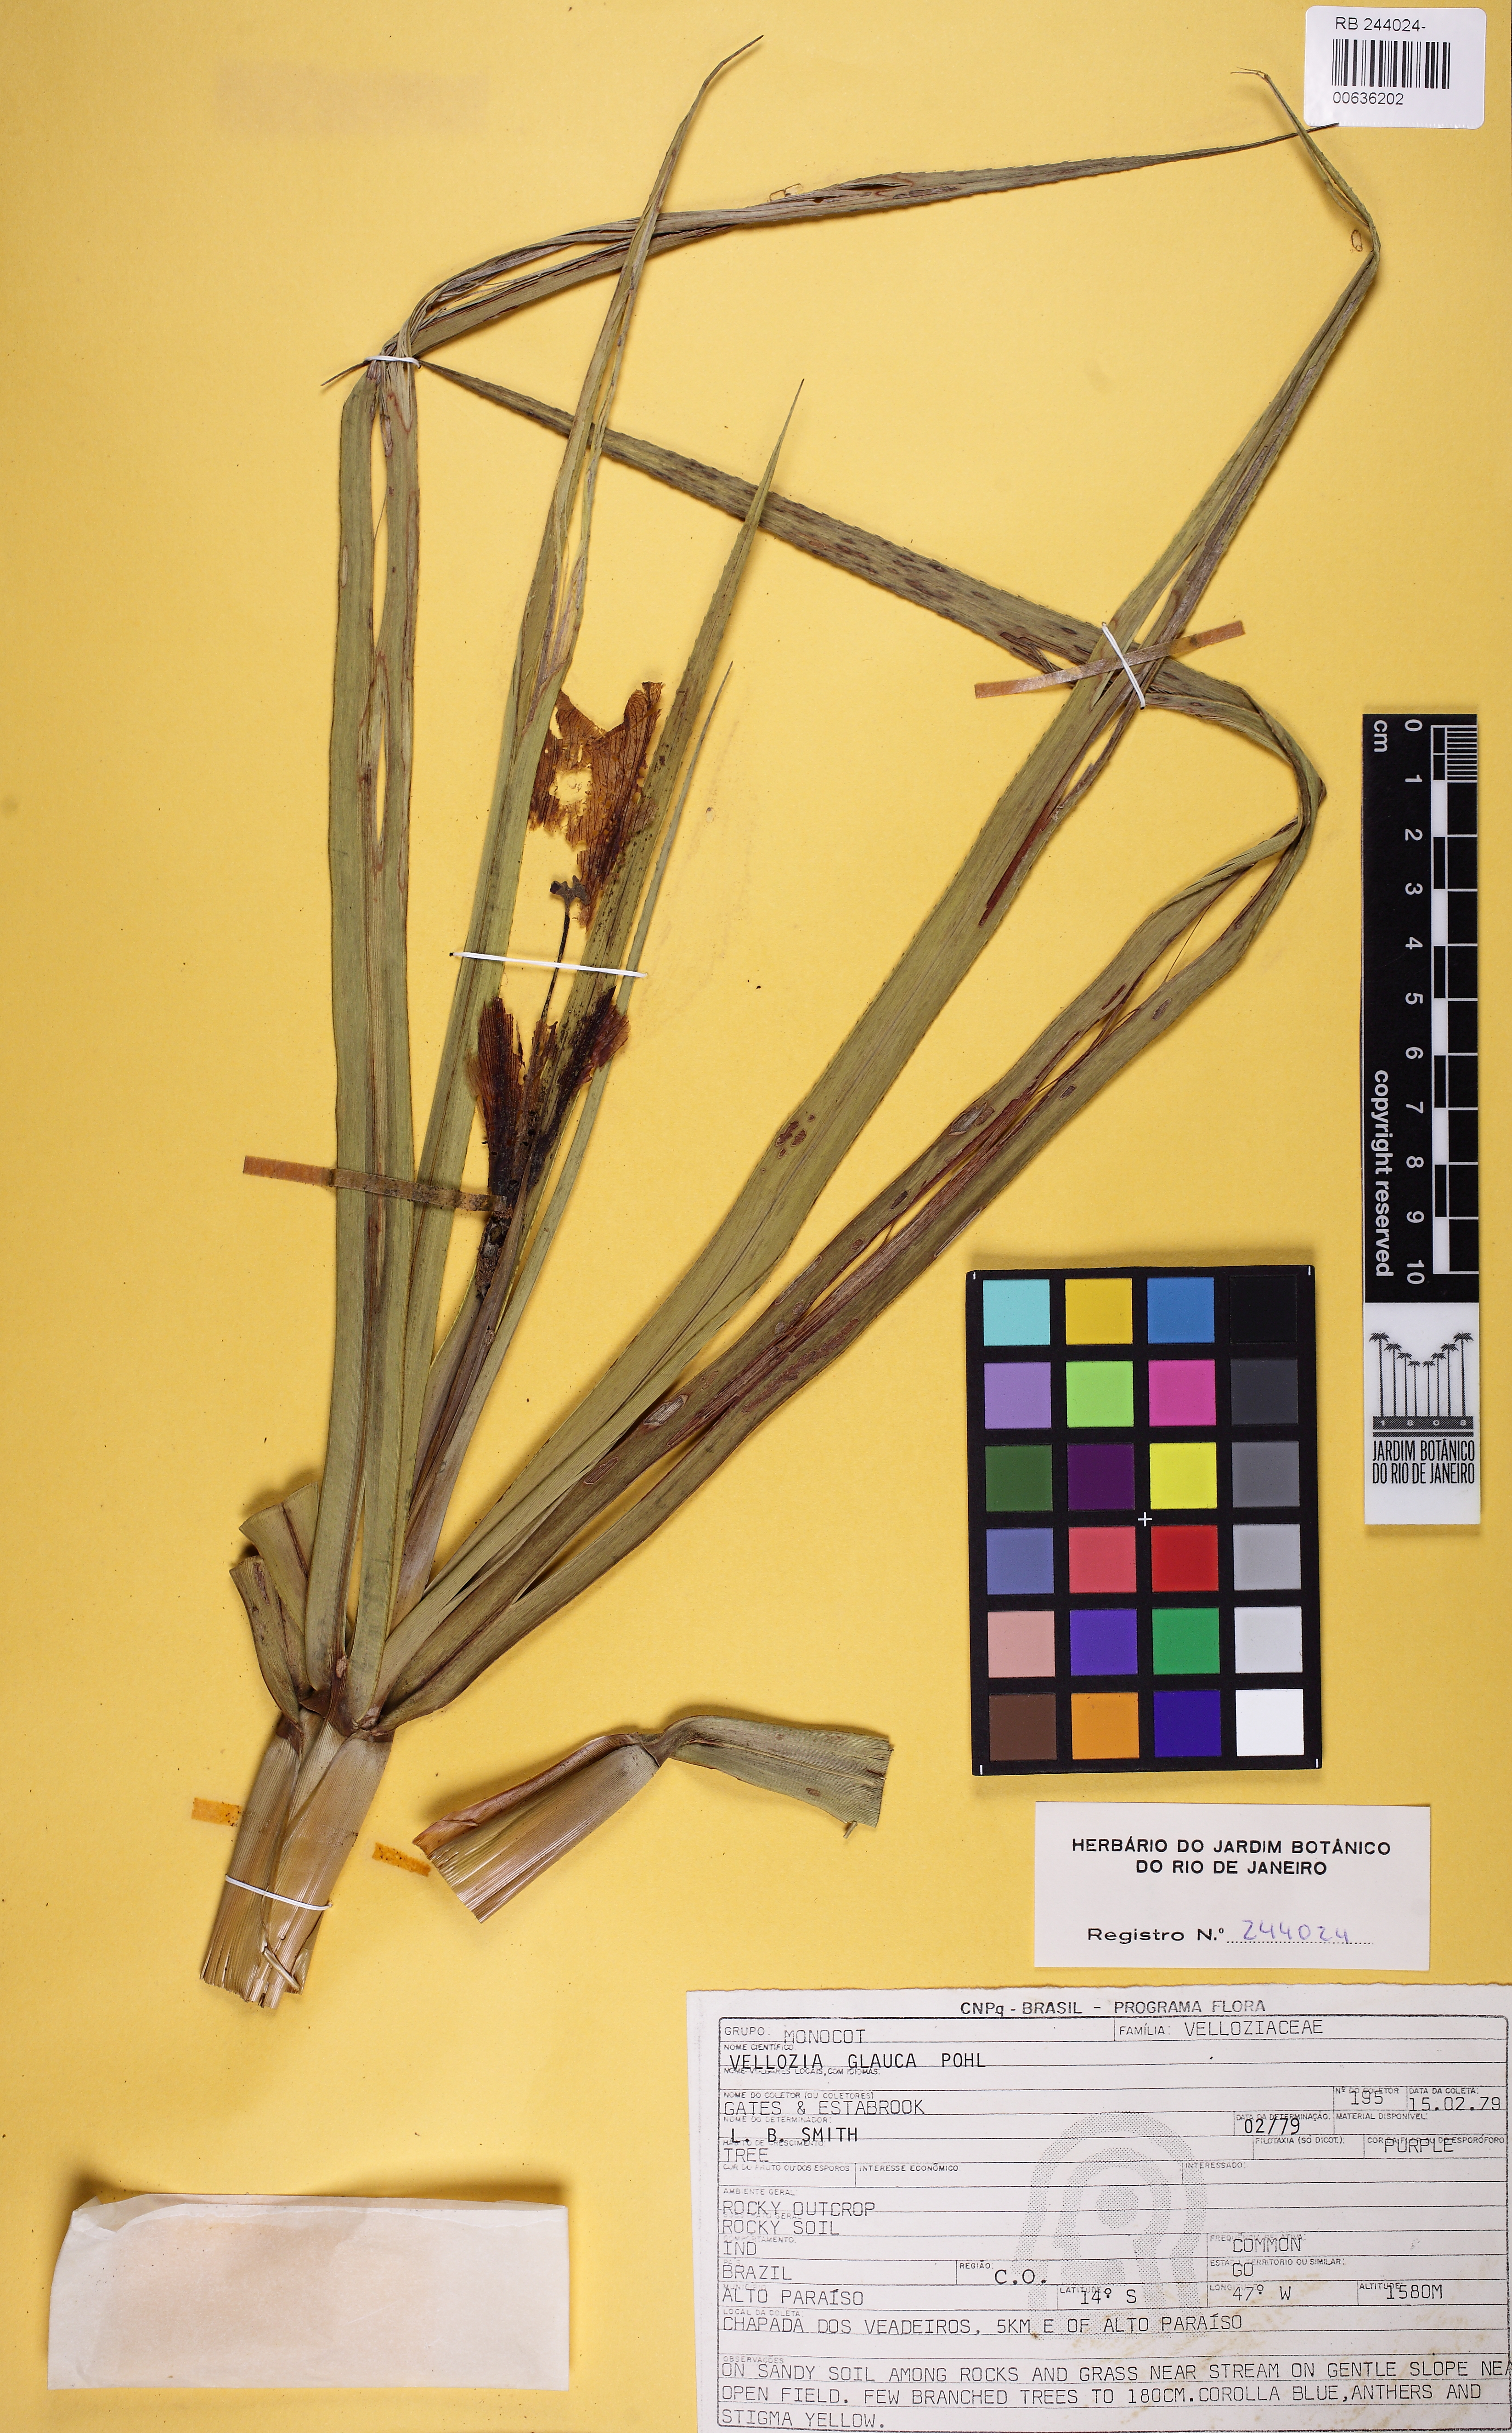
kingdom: Plantae
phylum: Tracheophyta
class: Liliopsida
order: Pandanales
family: Velloziaceae
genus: Vellozia
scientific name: Vellozia glauca
